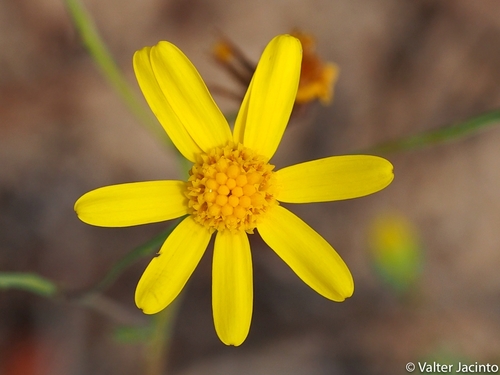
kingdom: Plantae
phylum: Tracheophyta
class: Magnoliopsida
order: Asterales
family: Asteraceae
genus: Senecio
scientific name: Senecio gallicus
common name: French groundsel
